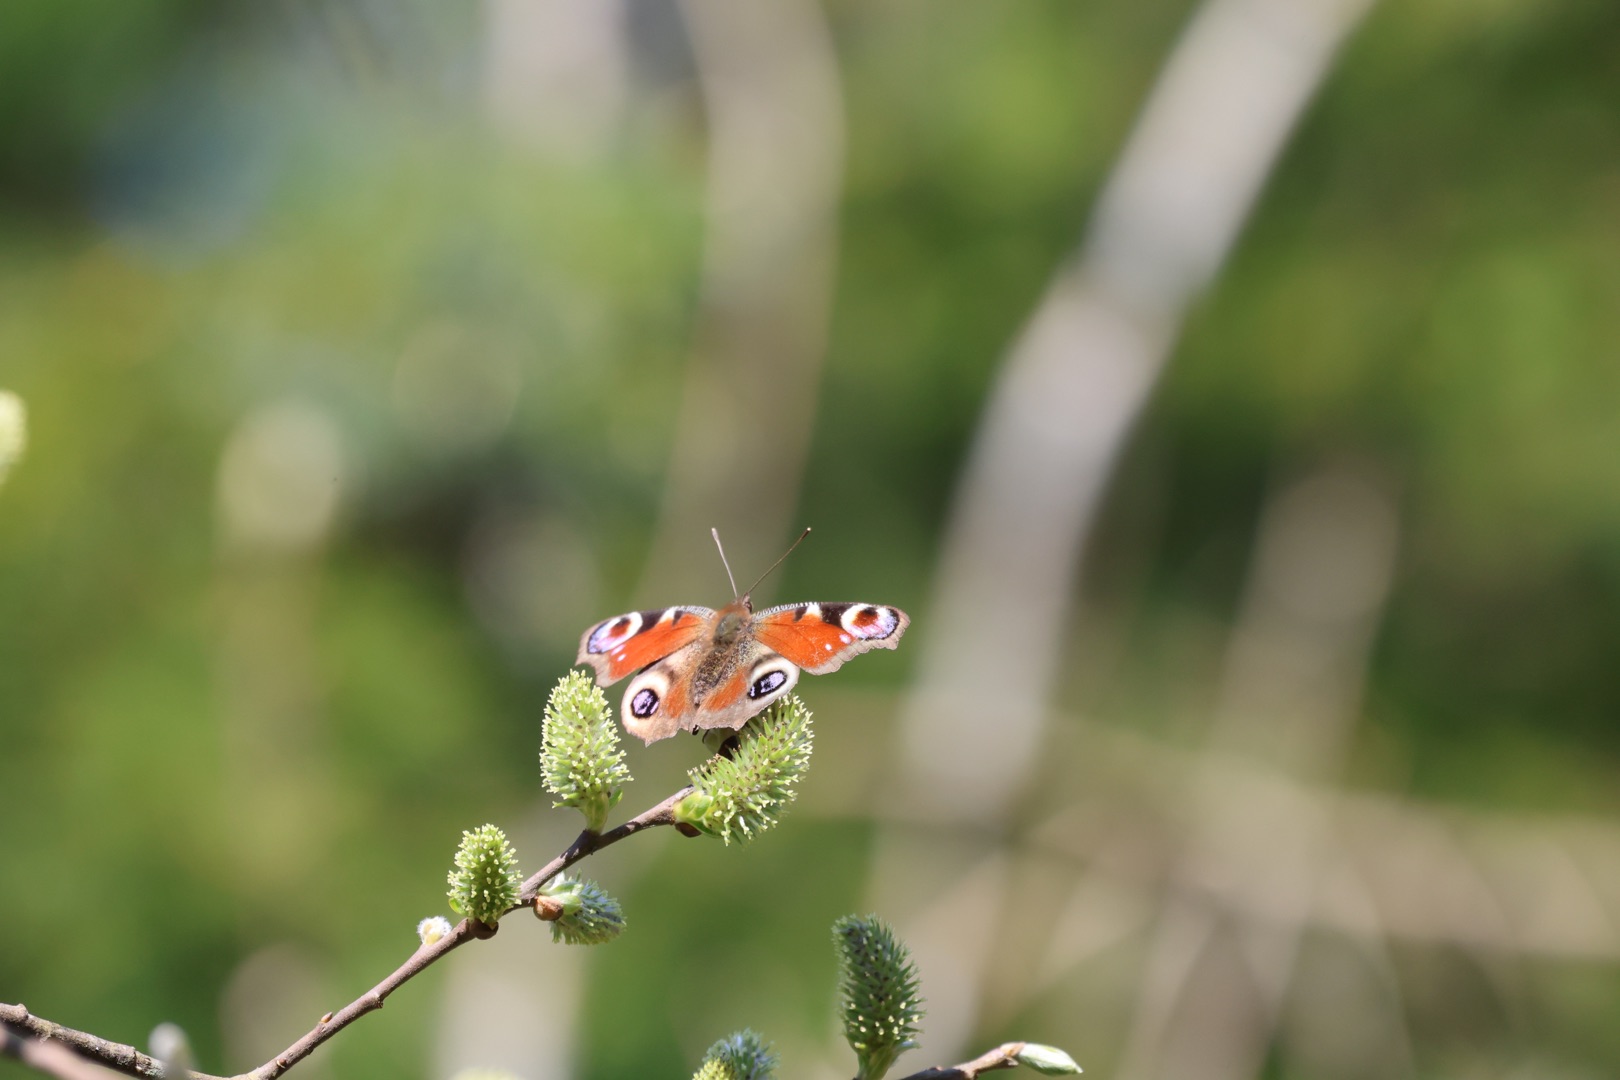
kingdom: Animalia
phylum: Arthropoda
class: Insecta
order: Lepidoptera
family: Nymphalidae
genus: Aglais
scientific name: Aglais io
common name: Dagpåfugleøje
